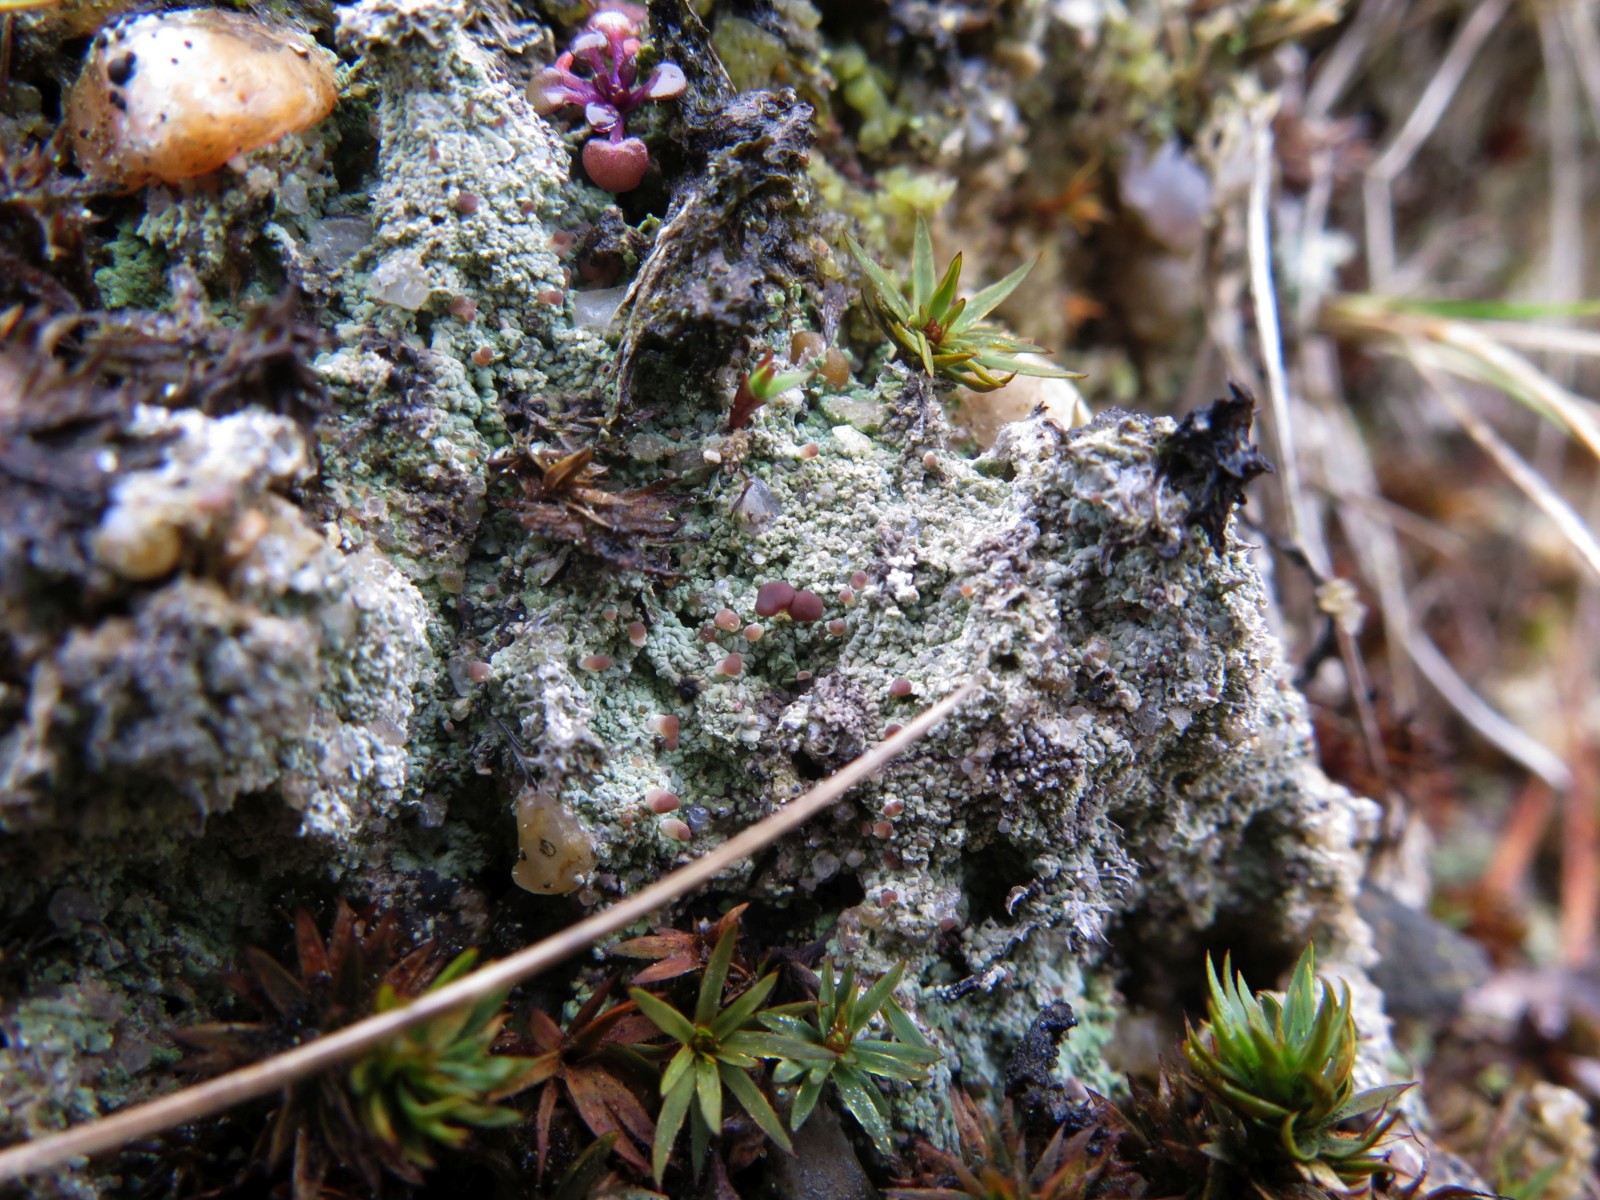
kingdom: Fungi
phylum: Ascomycota
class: Lecanoromycetes
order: Baeomycetales
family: Baeomycetaceae
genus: Baeomyces
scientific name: Baeomyces rufus
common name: rødbrun svampelav
